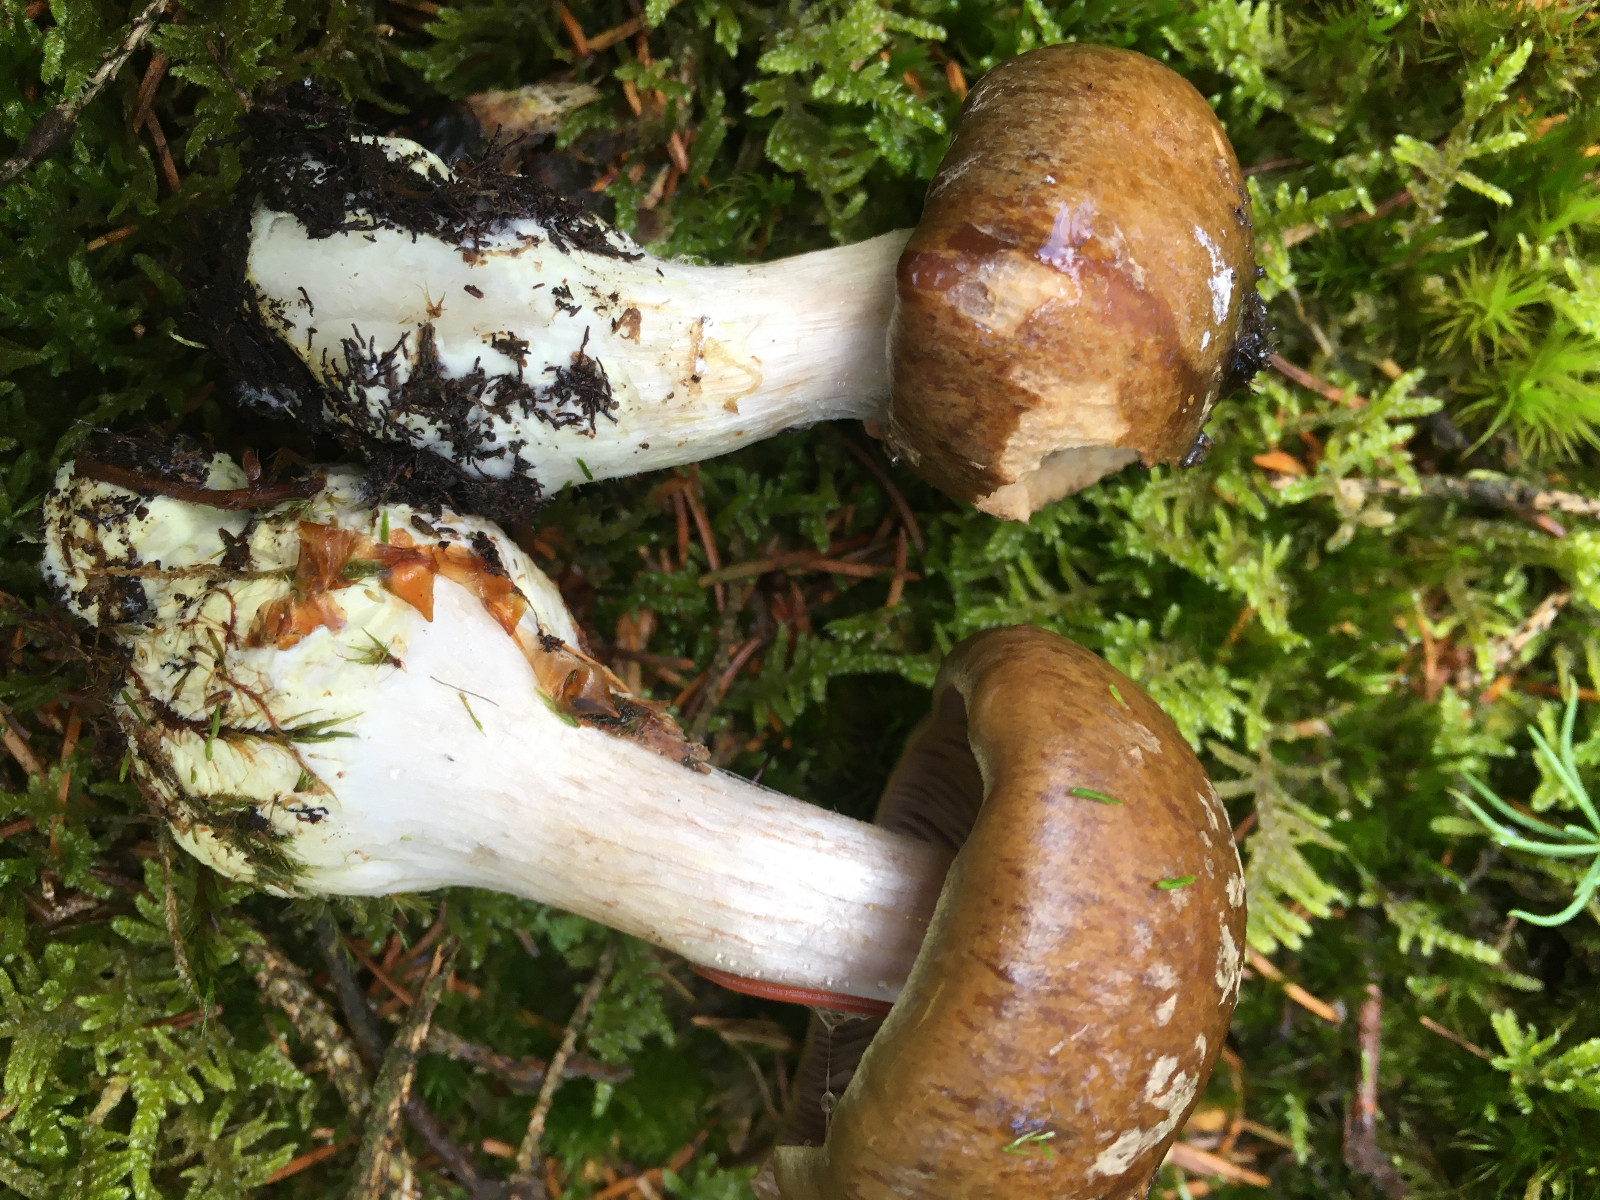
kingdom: Fungi
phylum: Basidiomycota
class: Agaricomycetes
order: Agaricales
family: Cortinariaceae
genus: Thaxterogaster
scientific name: Thaxterogaster sphagnophilus
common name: vandplettet slørhat
